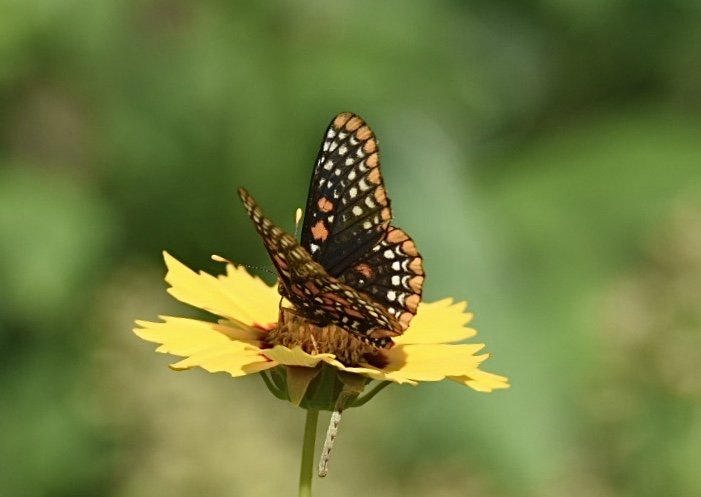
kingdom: Animalia
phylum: Arthropoda
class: Insecta
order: Lepidoptera
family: Nymphalidae
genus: Euphydryas
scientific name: Euphydryas phaeton
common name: Baltimore Checkerspot
